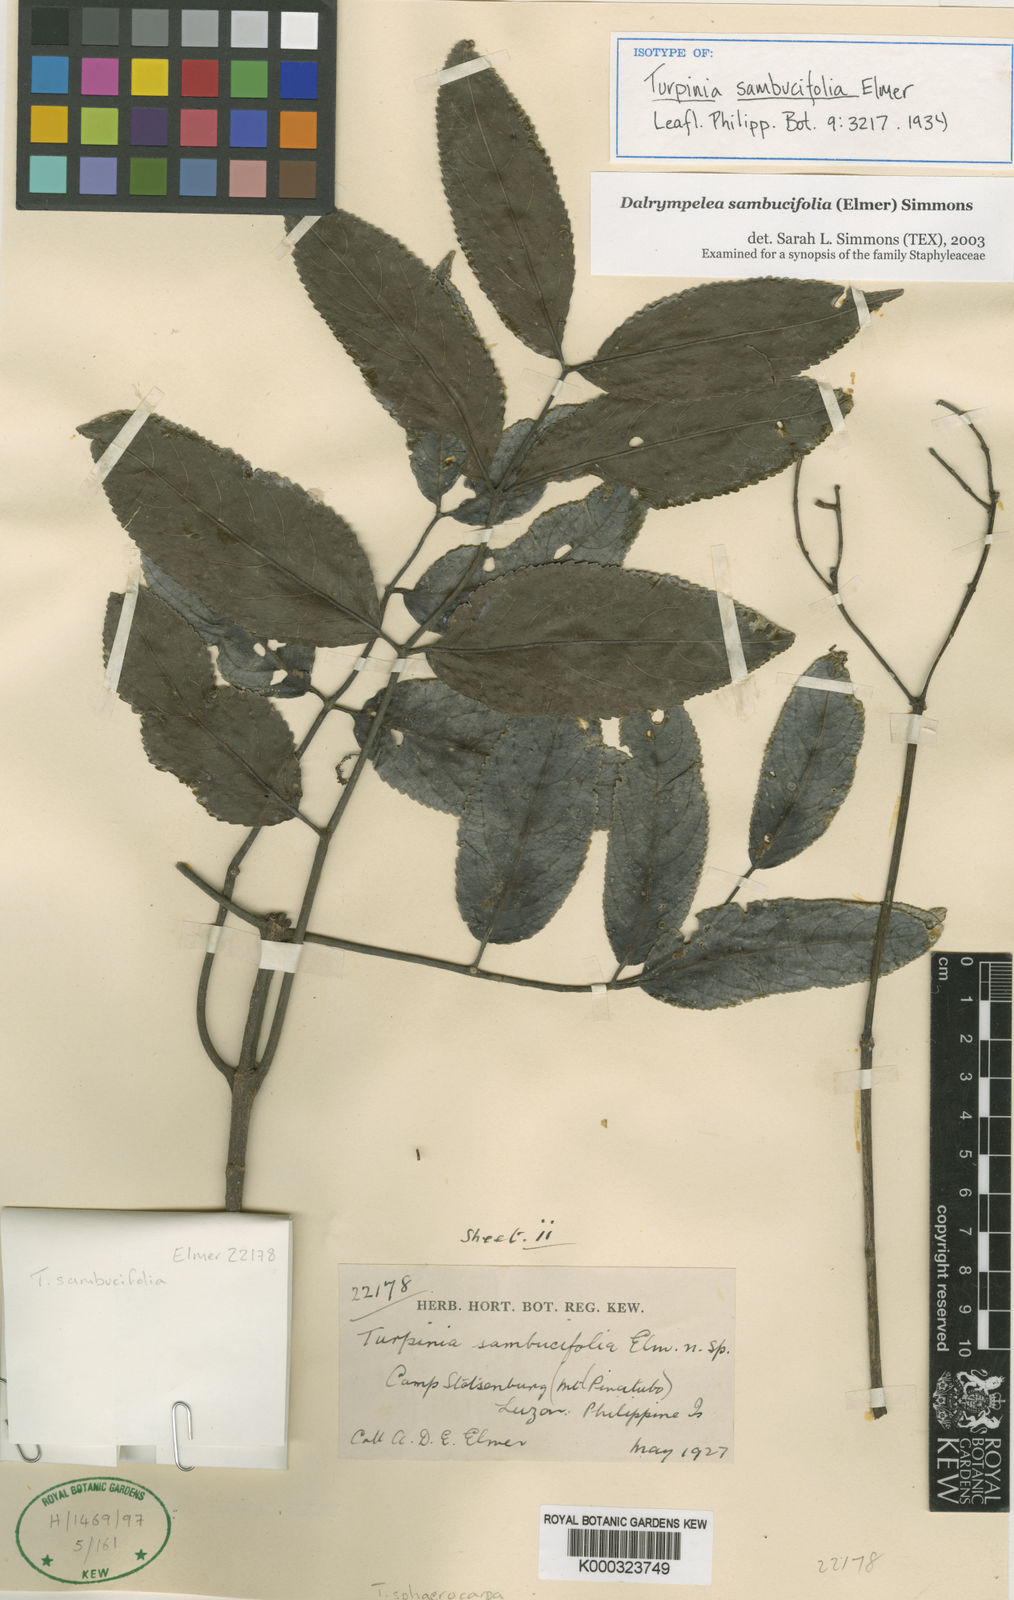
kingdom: Plantae
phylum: Tracheophyta
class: Magnoliopsida
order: Crossosomatales
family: Staphyleaceae
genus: Dalrympelea
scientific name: Dalrympelea sphaerocarpa
